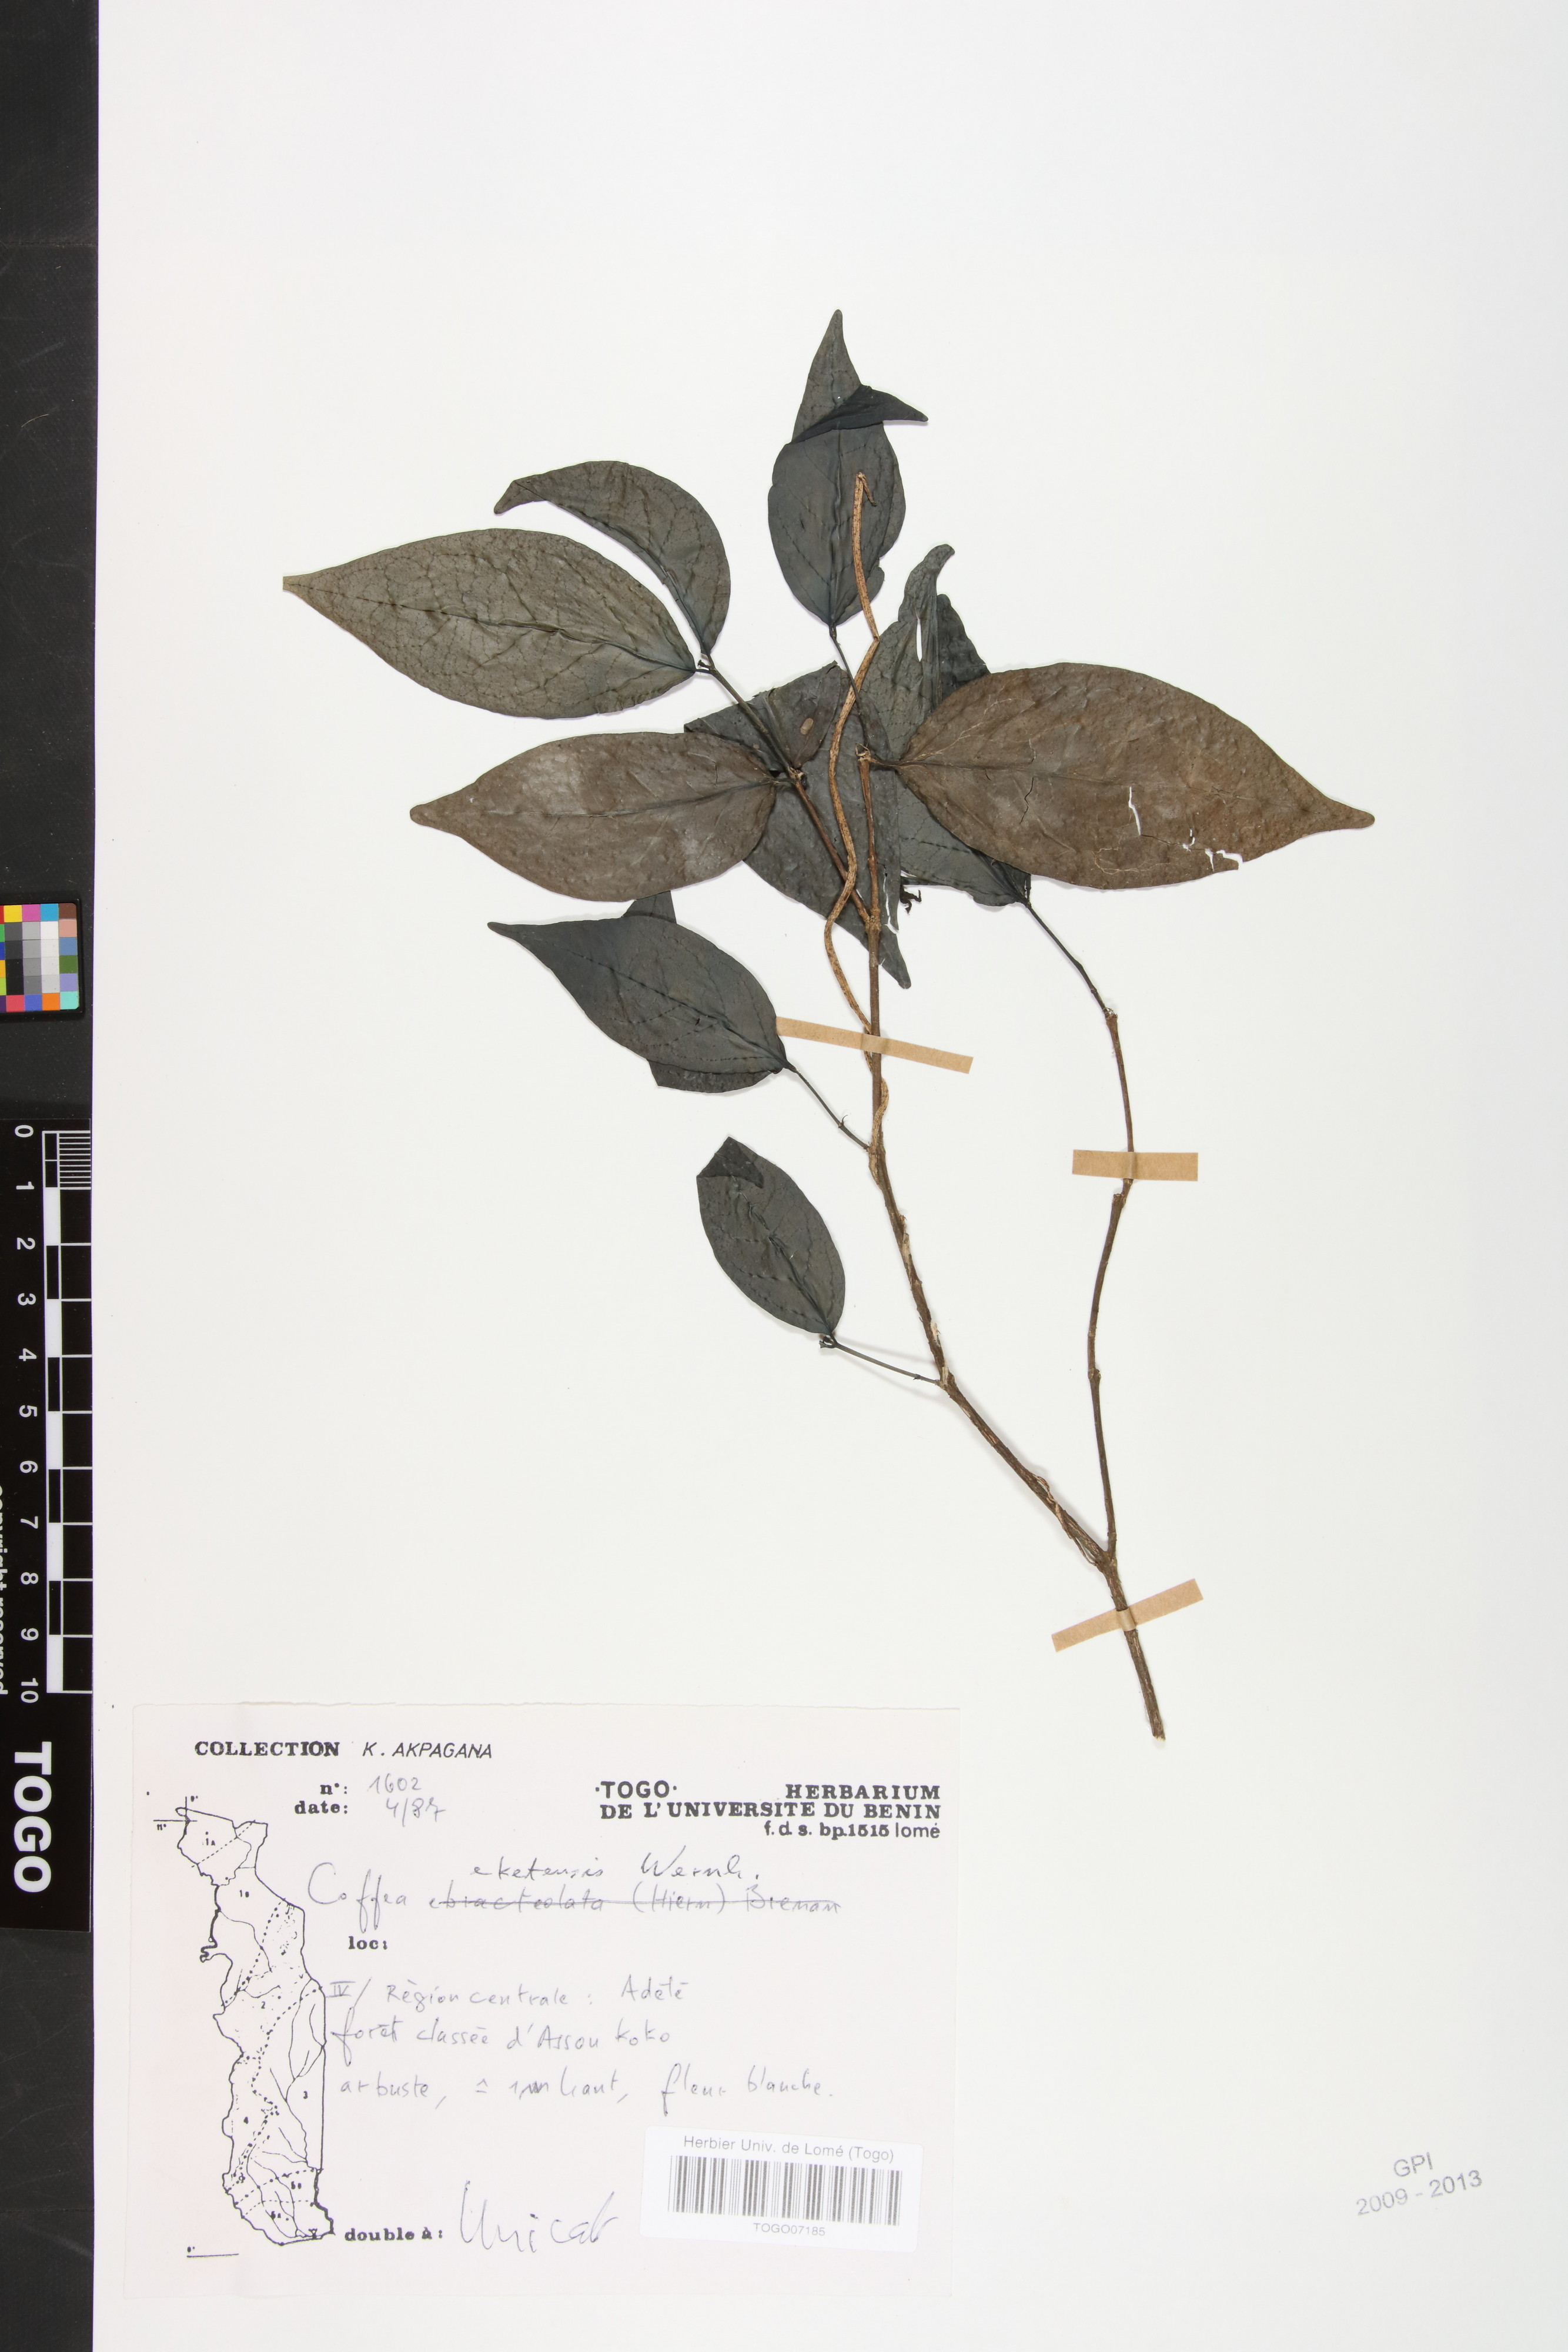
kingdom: Plantae
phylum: Tracheophyta
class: Magnoliopsida
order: Gentianales
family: Rubiaceae
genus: Argocoffeopsis
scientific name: Argocoffeopsis eketensis
